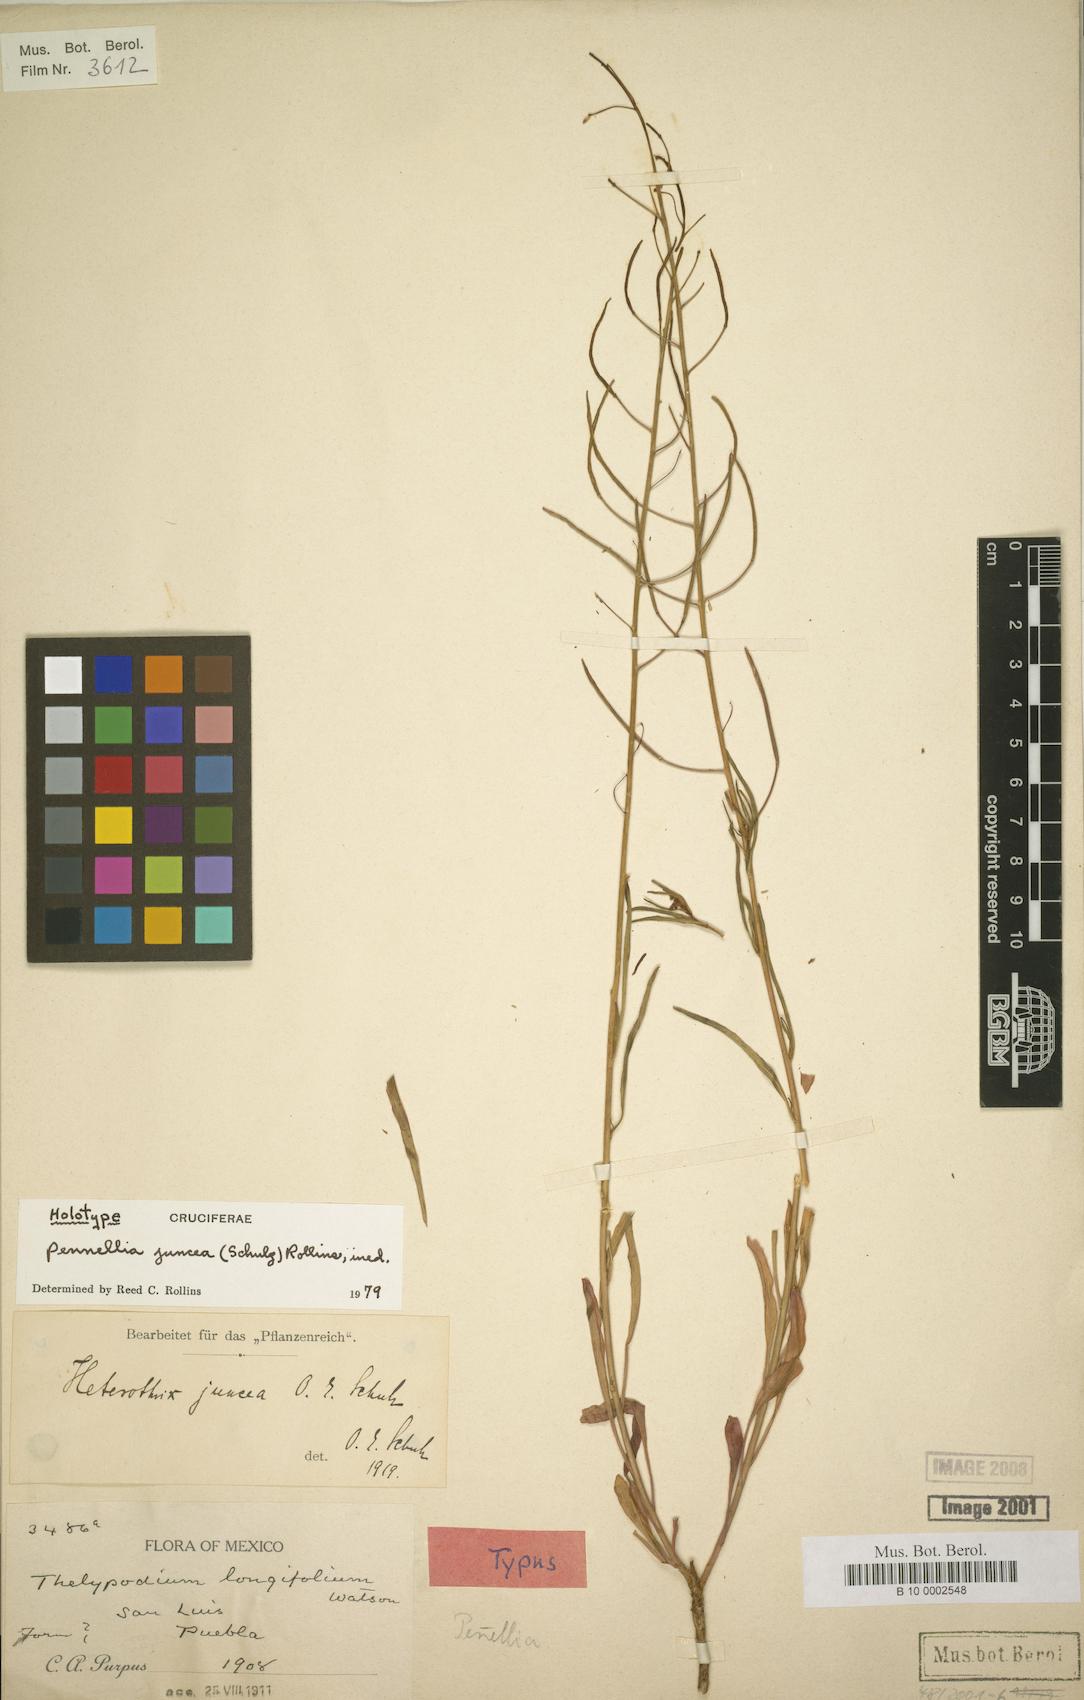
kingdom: Plantae
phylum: Tracheophyta
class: Magnoliopsida
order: Brassicales
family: Brassicaceae
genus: Pennellia
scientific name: Pennellia patens
